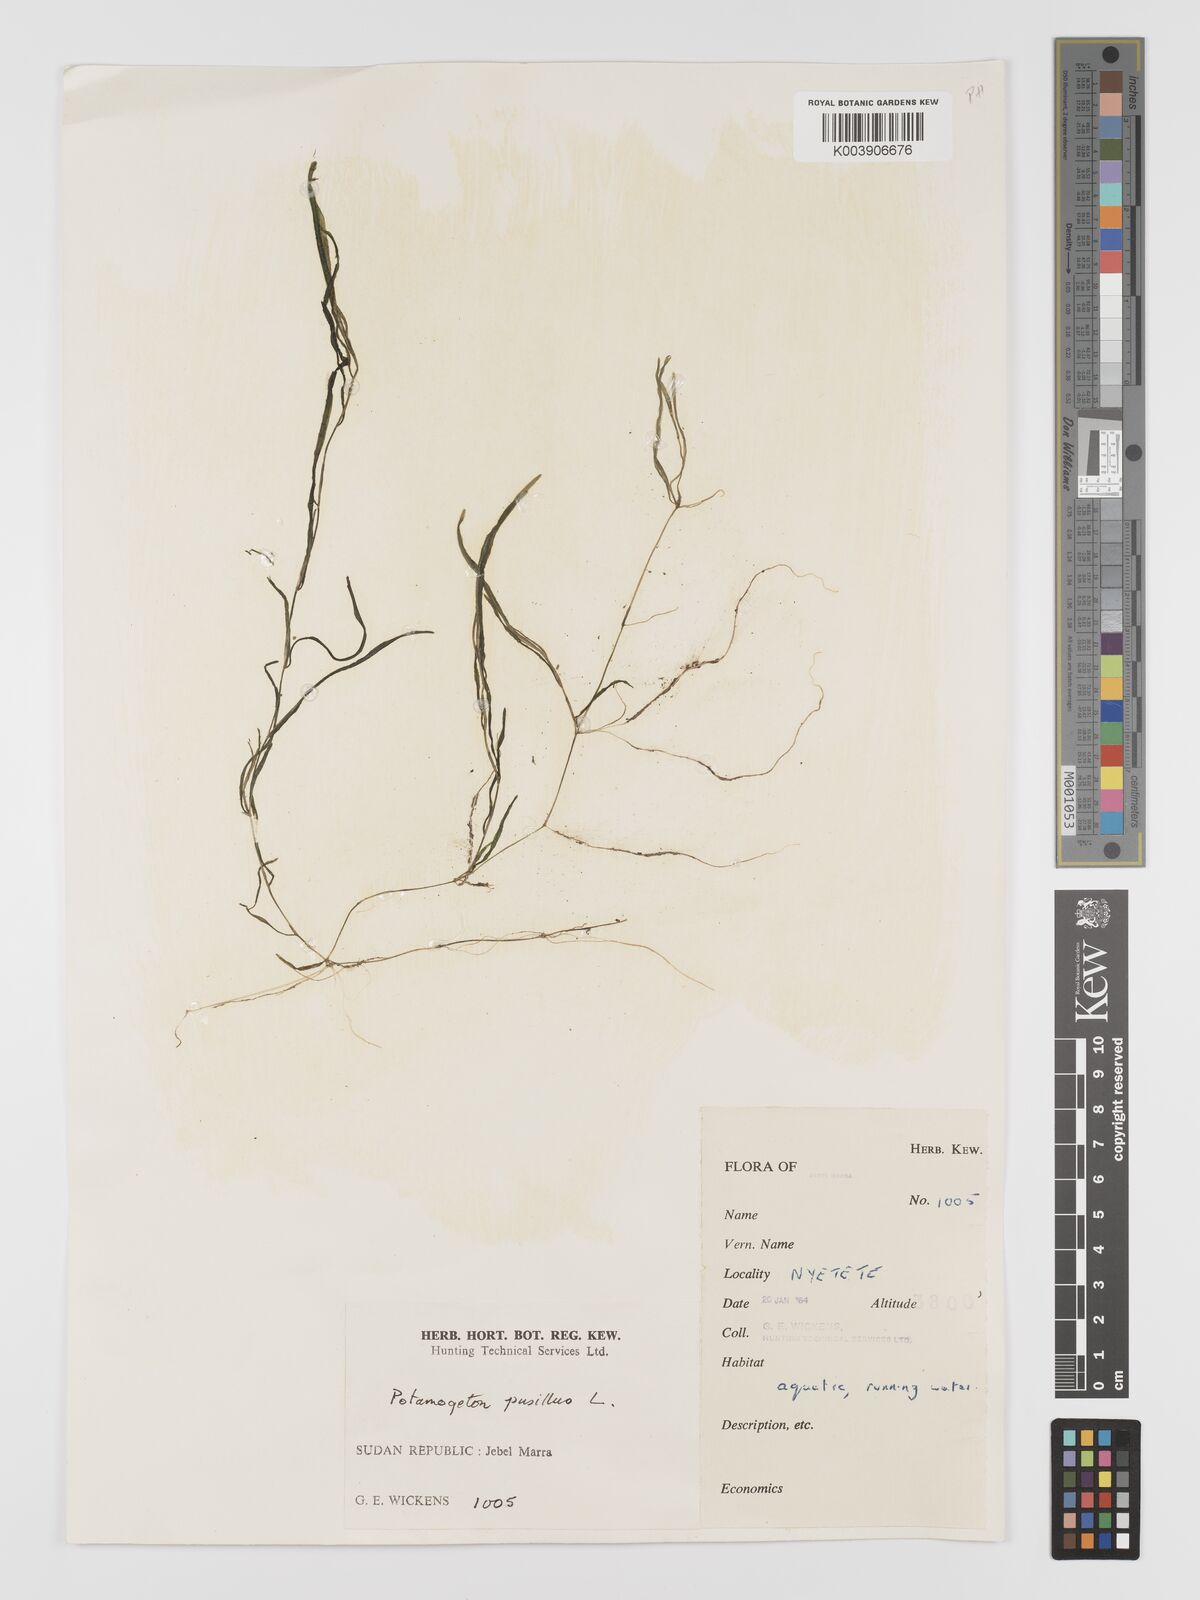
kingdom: Plantae
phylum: Tracheophyta
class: Liliopsida
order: Alismatales
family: Potamogetonaceae
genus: Potamogeton
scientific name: Potamogeton pusillus
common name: Lesser pondweed
